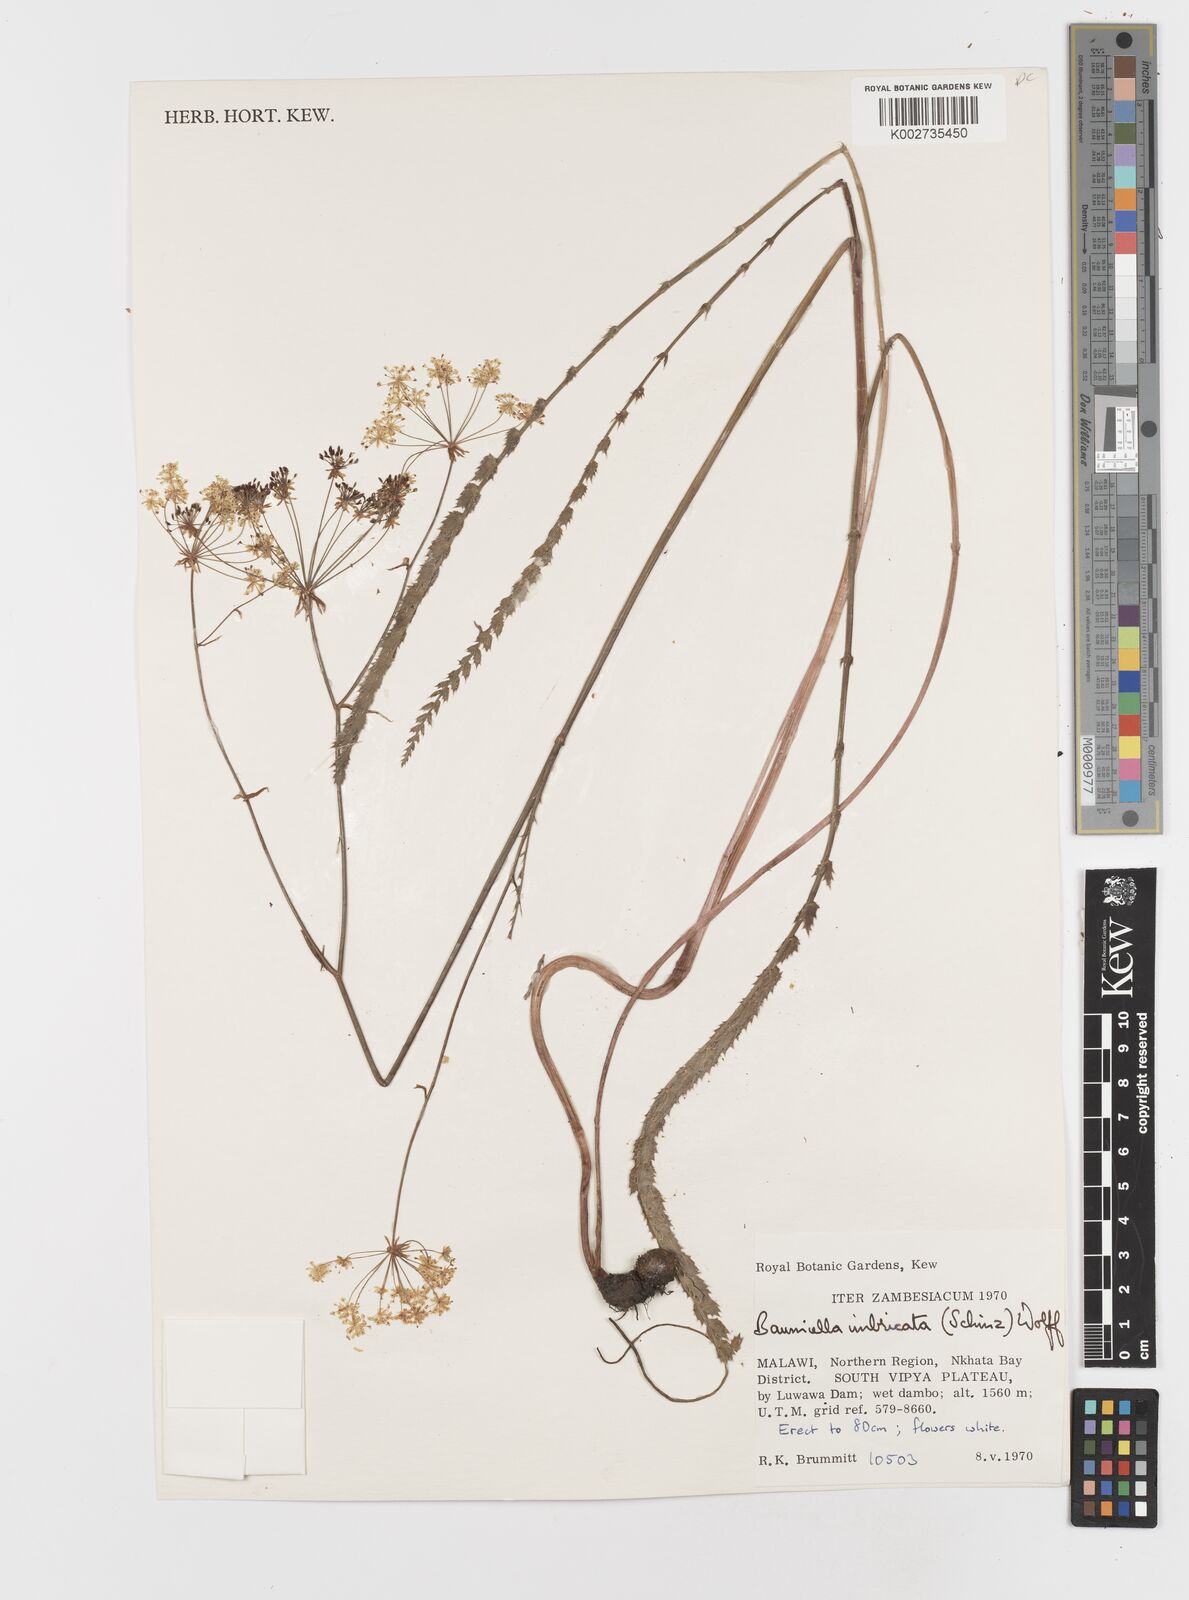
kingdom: Plantae
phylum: Tracheophyta
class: Magnoliopsida
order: Apiales
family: Apiaceae
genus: Berula
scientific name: Berula imbricata
